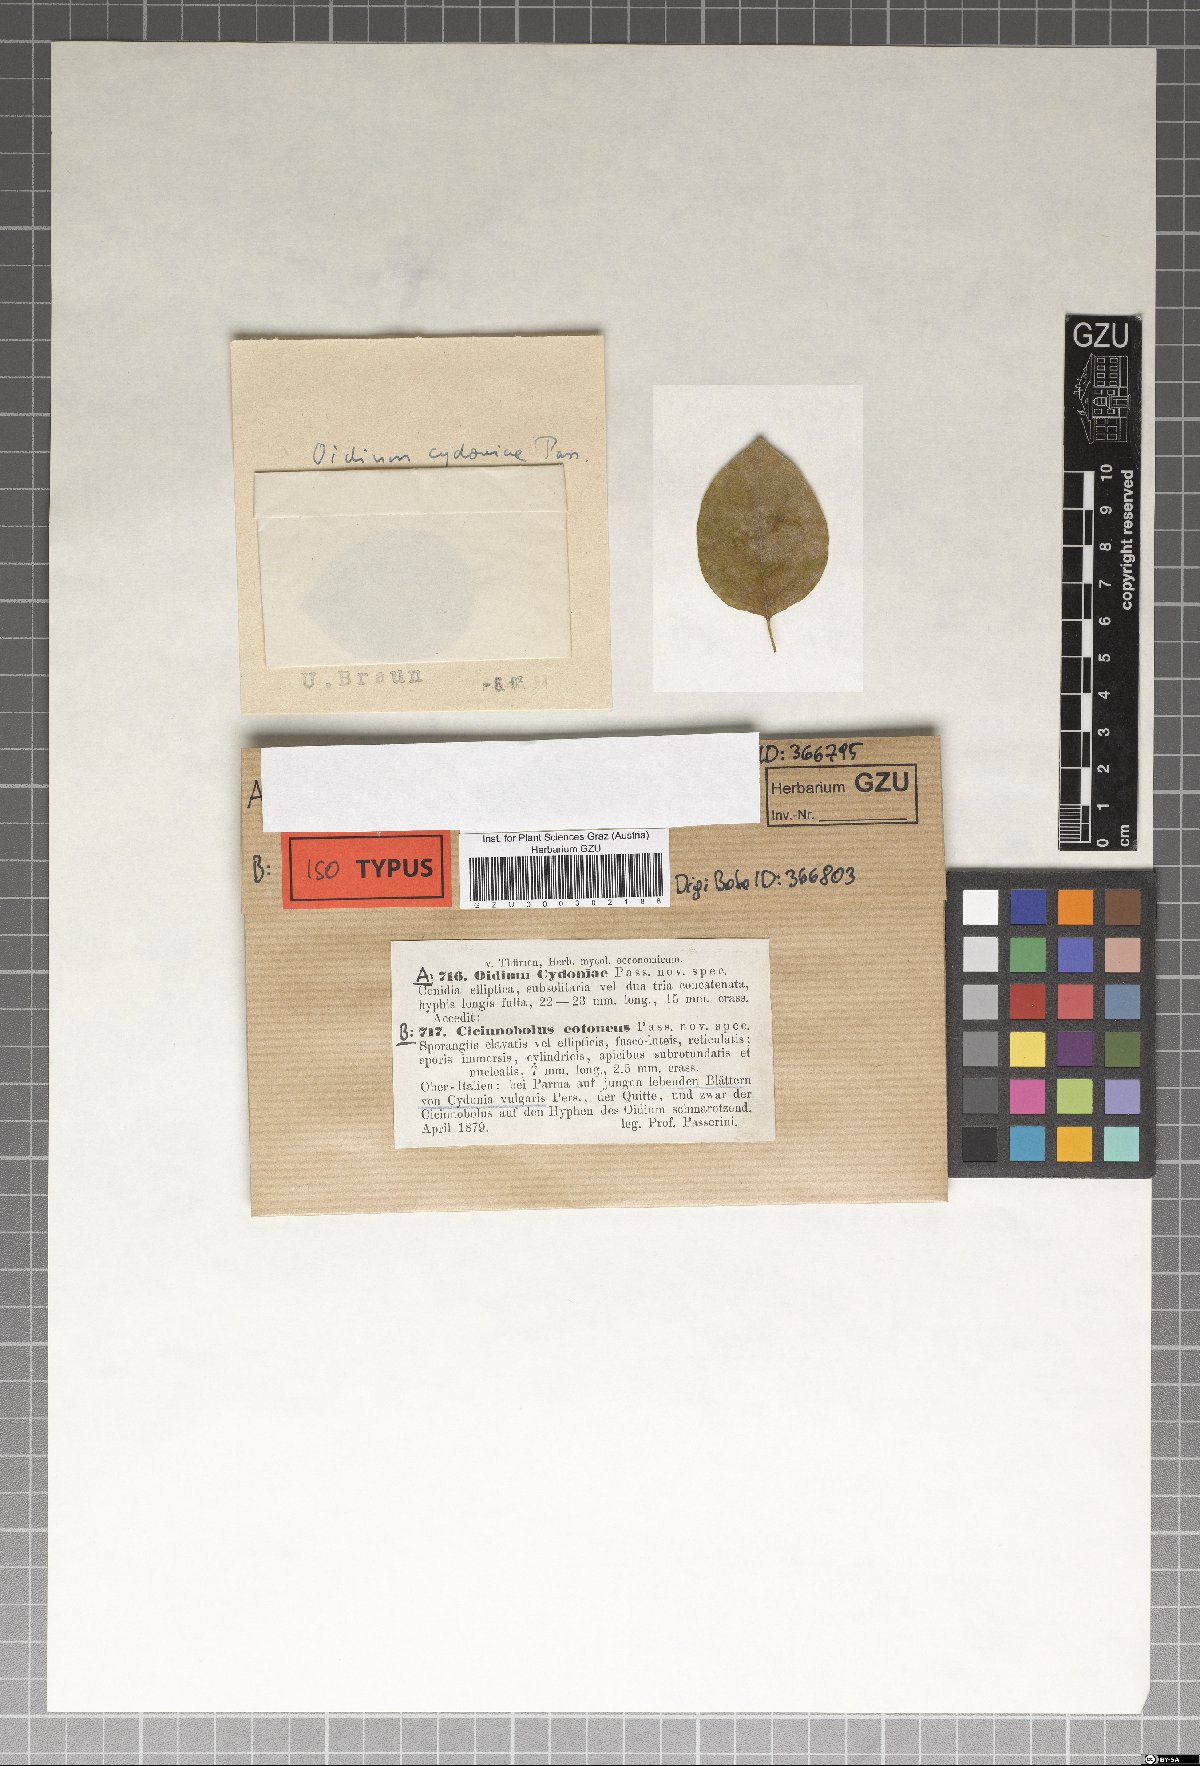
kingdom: Fungi
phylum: Ascomycota
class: Dothideomycetes
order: Pleosporales
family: Phaeosphaeriaceae
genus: Cicinobolus
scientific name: Cicinobolus
